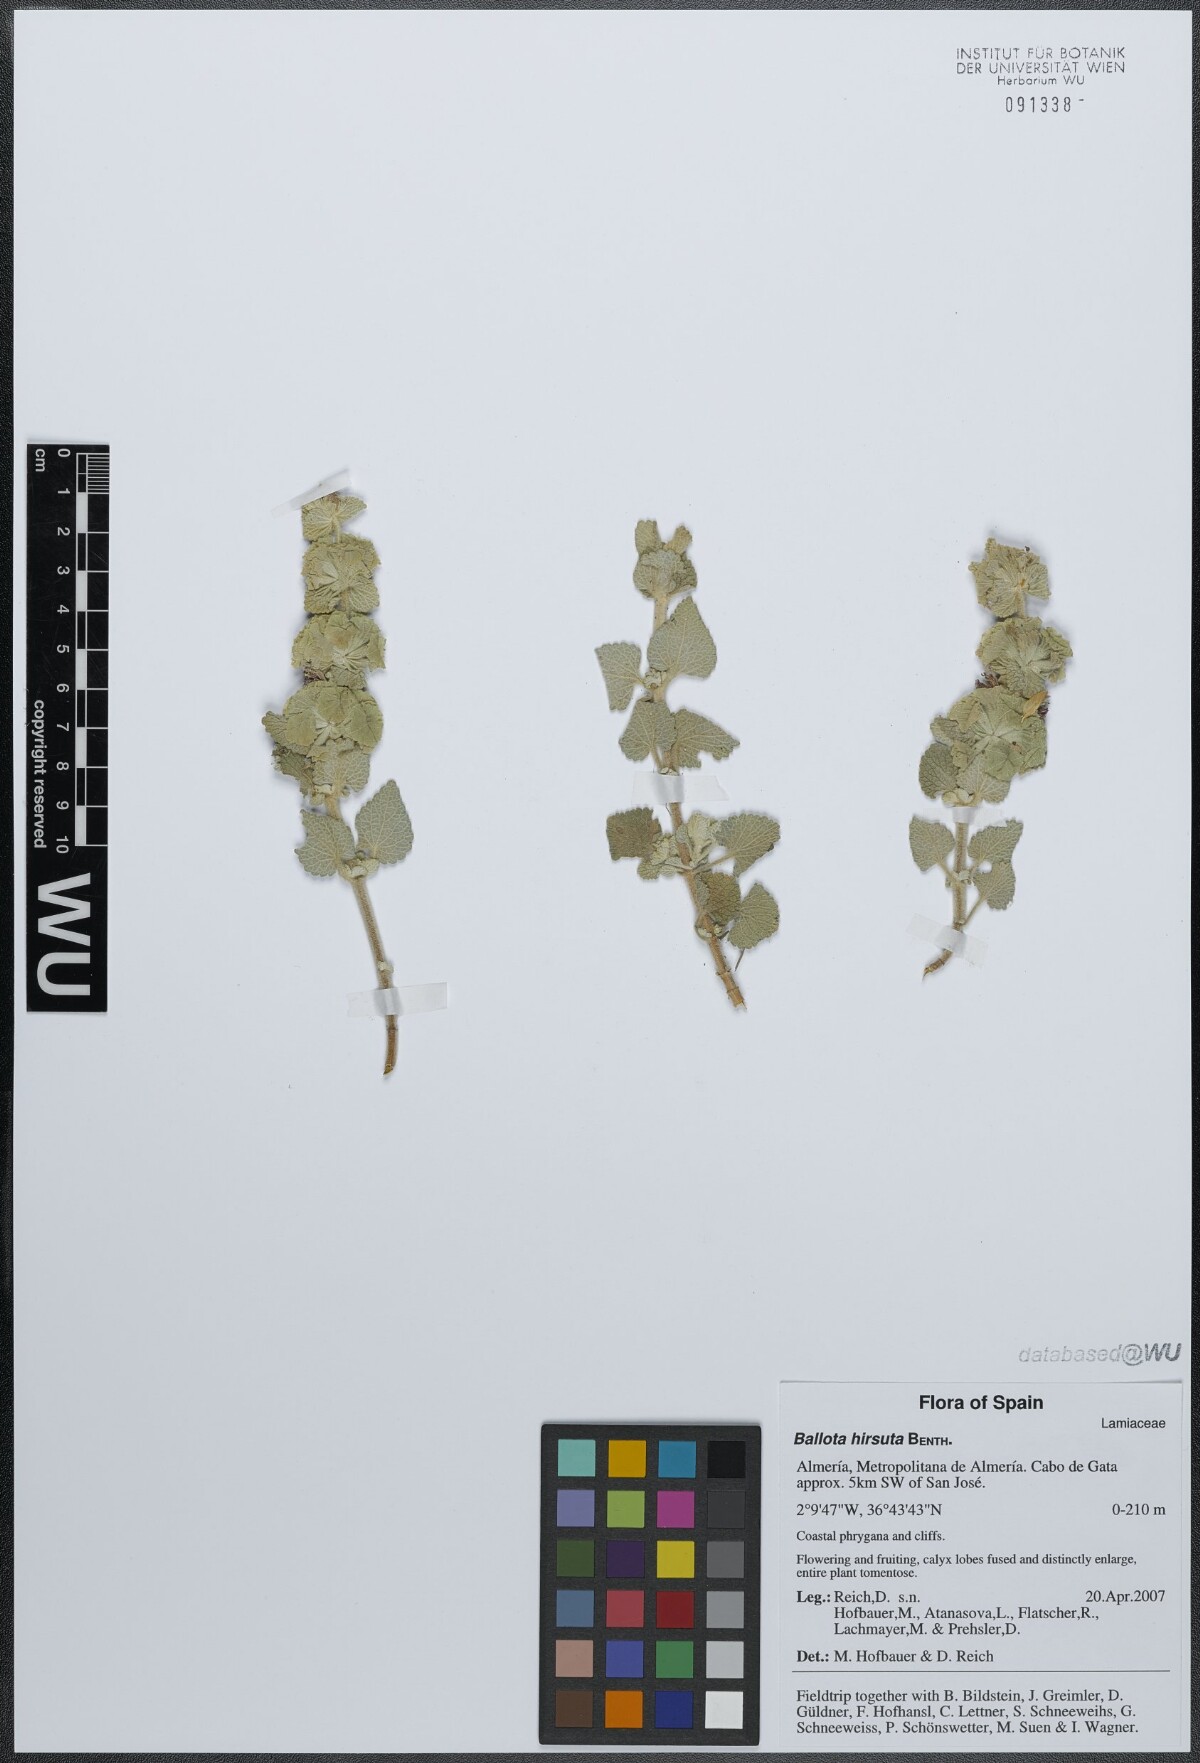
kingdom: Plantae
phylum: Tracheophyta
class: Magnoliopsida
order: Lamiales
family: Lamiaceae
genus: Pseudodictamnus
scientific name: Pseudodictamnus hirsutus
